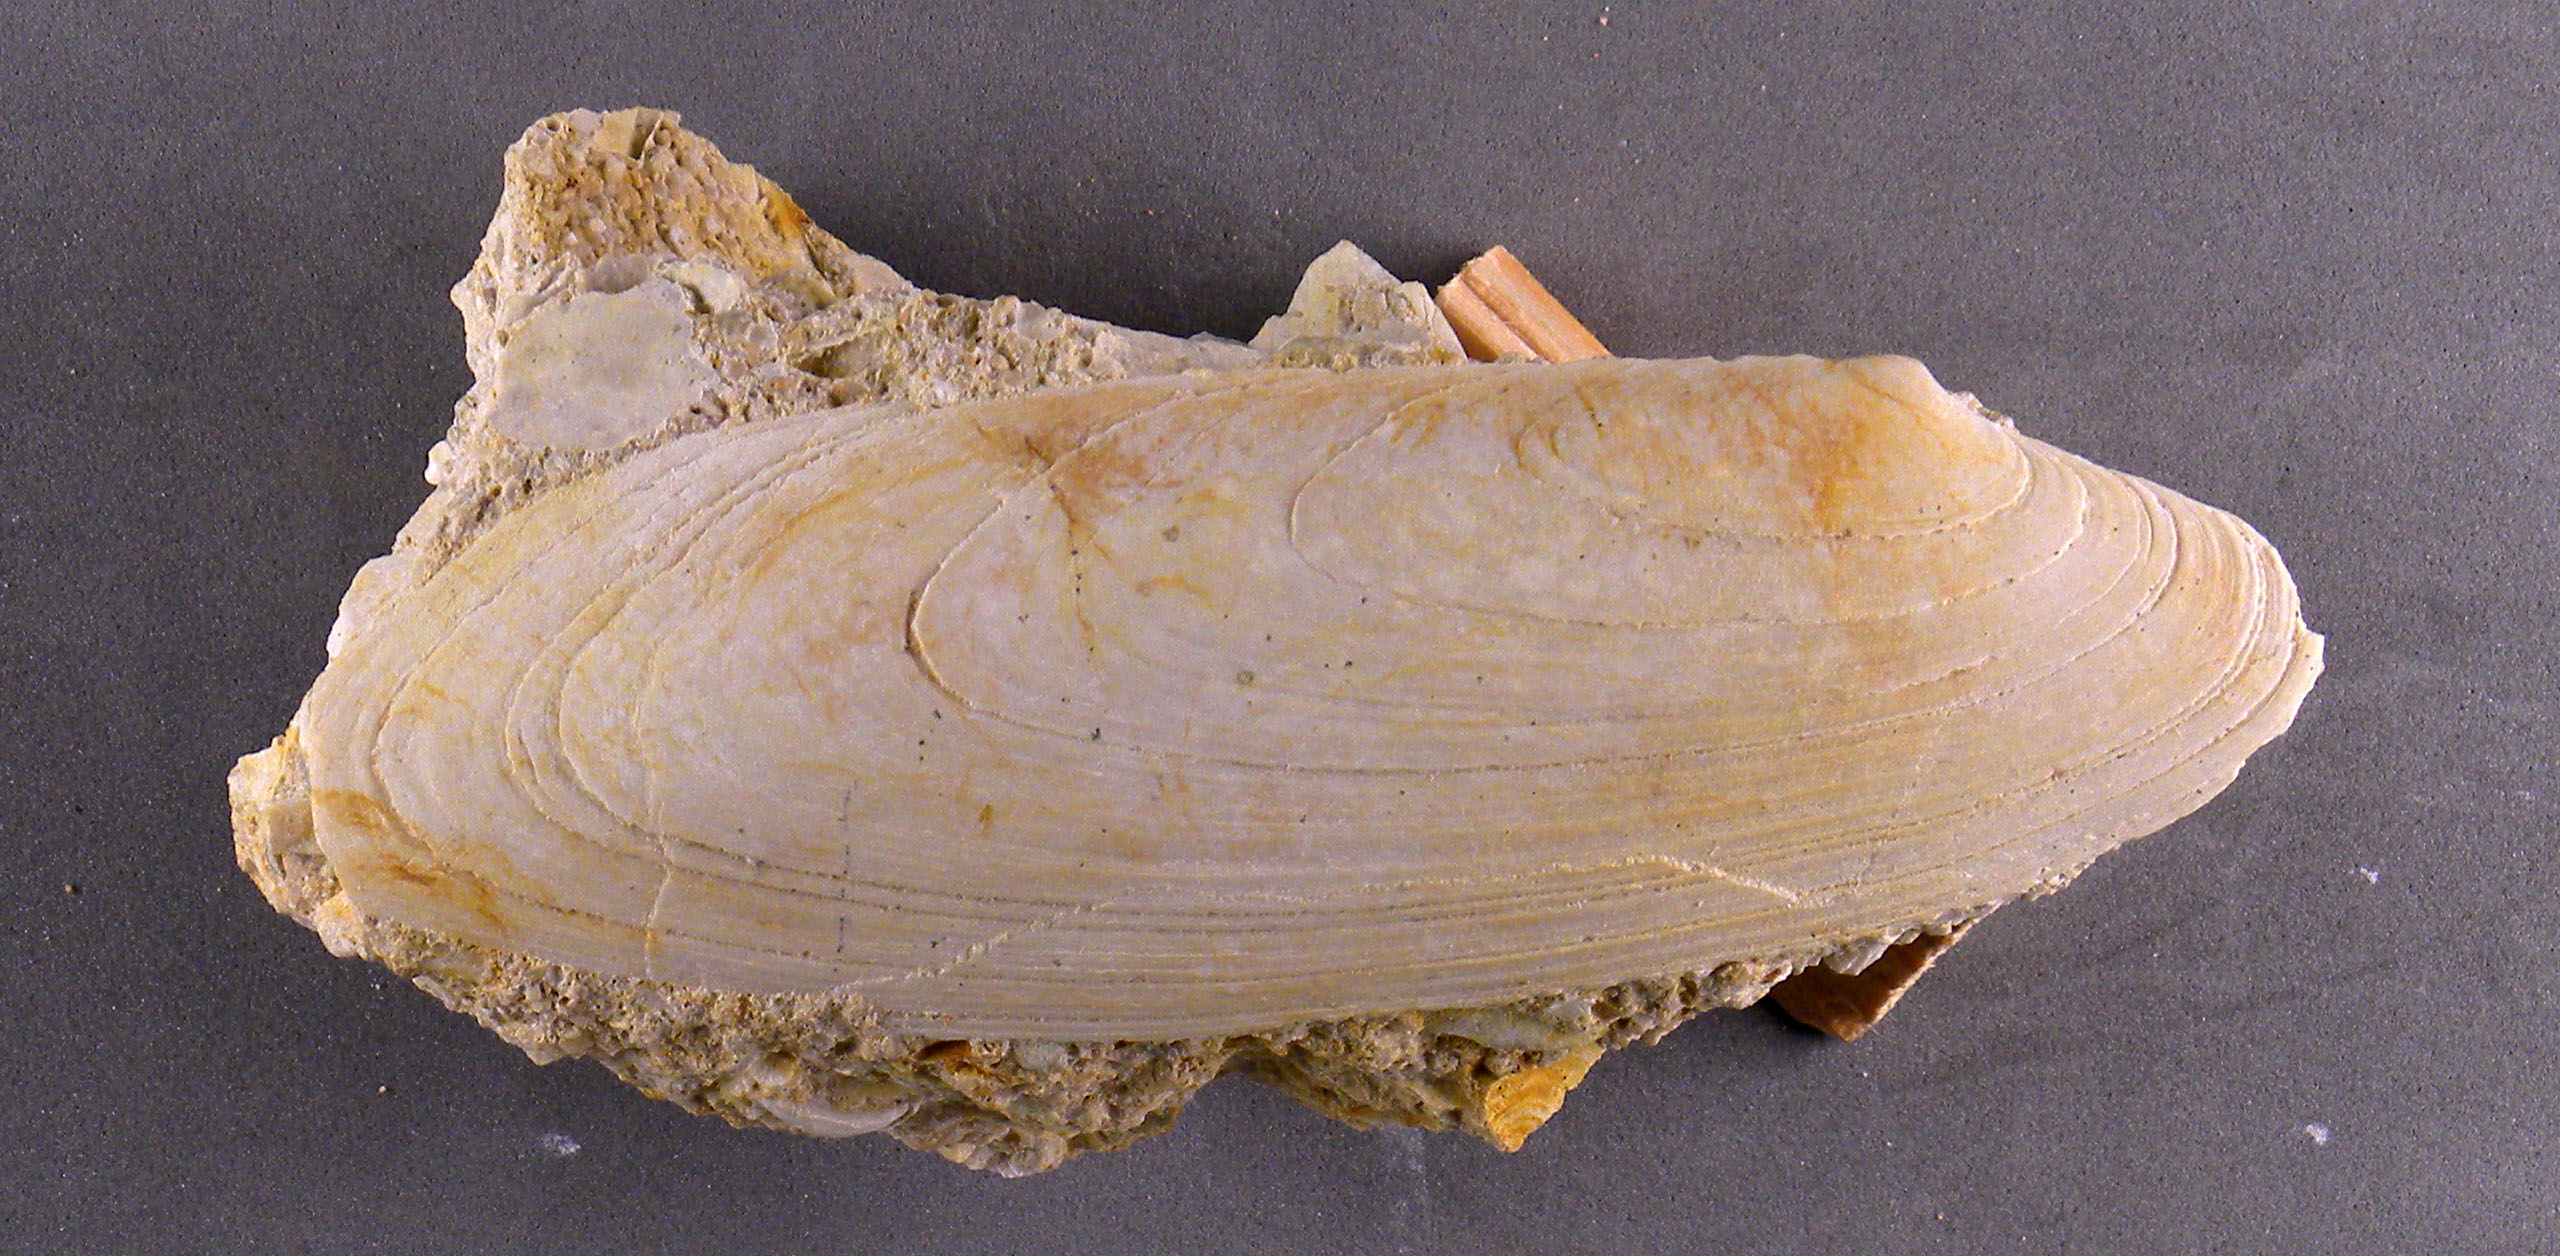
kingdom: Animalia
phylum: Mollusca
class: Bivalvia
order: Carditida
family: Cardiniidae
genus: Cardinia
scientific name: Cardinia
